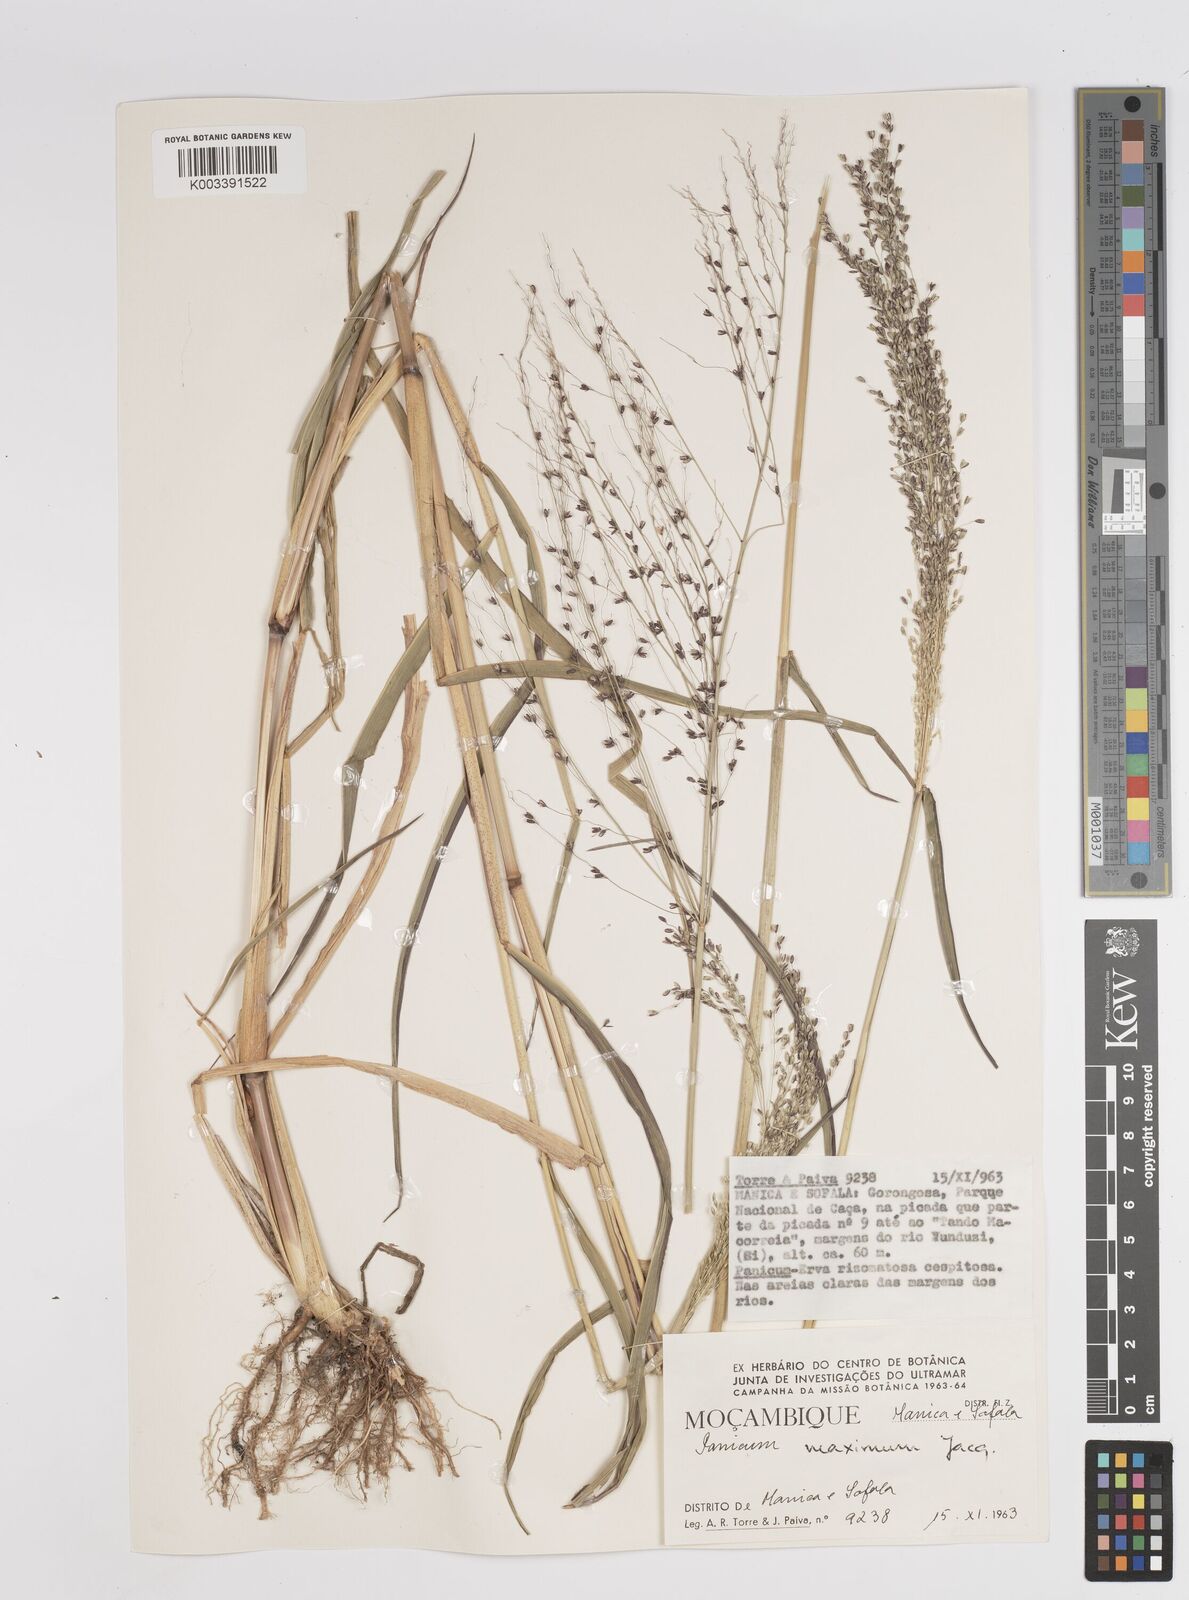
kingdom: Plantae
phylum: Tracheophyta
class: Liliopsida
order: Poales
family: Poaceae
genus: Megathyrsus
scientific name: Megathyrsus maximus
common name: Guineagrass
